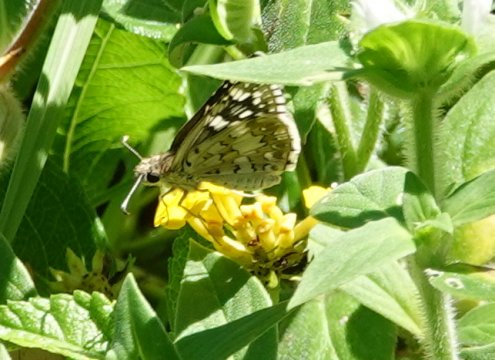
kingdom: Animalia
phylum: Arthropoda
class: Insecta
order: Lepidoptera
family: Hesperiidae
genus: Pyrgus
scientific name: Pyrgus communis
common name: White Checkered-Skipper
